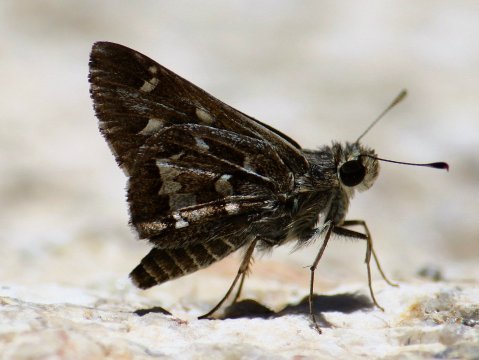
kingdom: Animalia
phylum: Arthropoda
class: Insecta
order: Lepidoptera
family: Hesperiidae
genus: Atrytonopsis
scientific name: Atrytonopsis python
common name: Cestus Skipper
